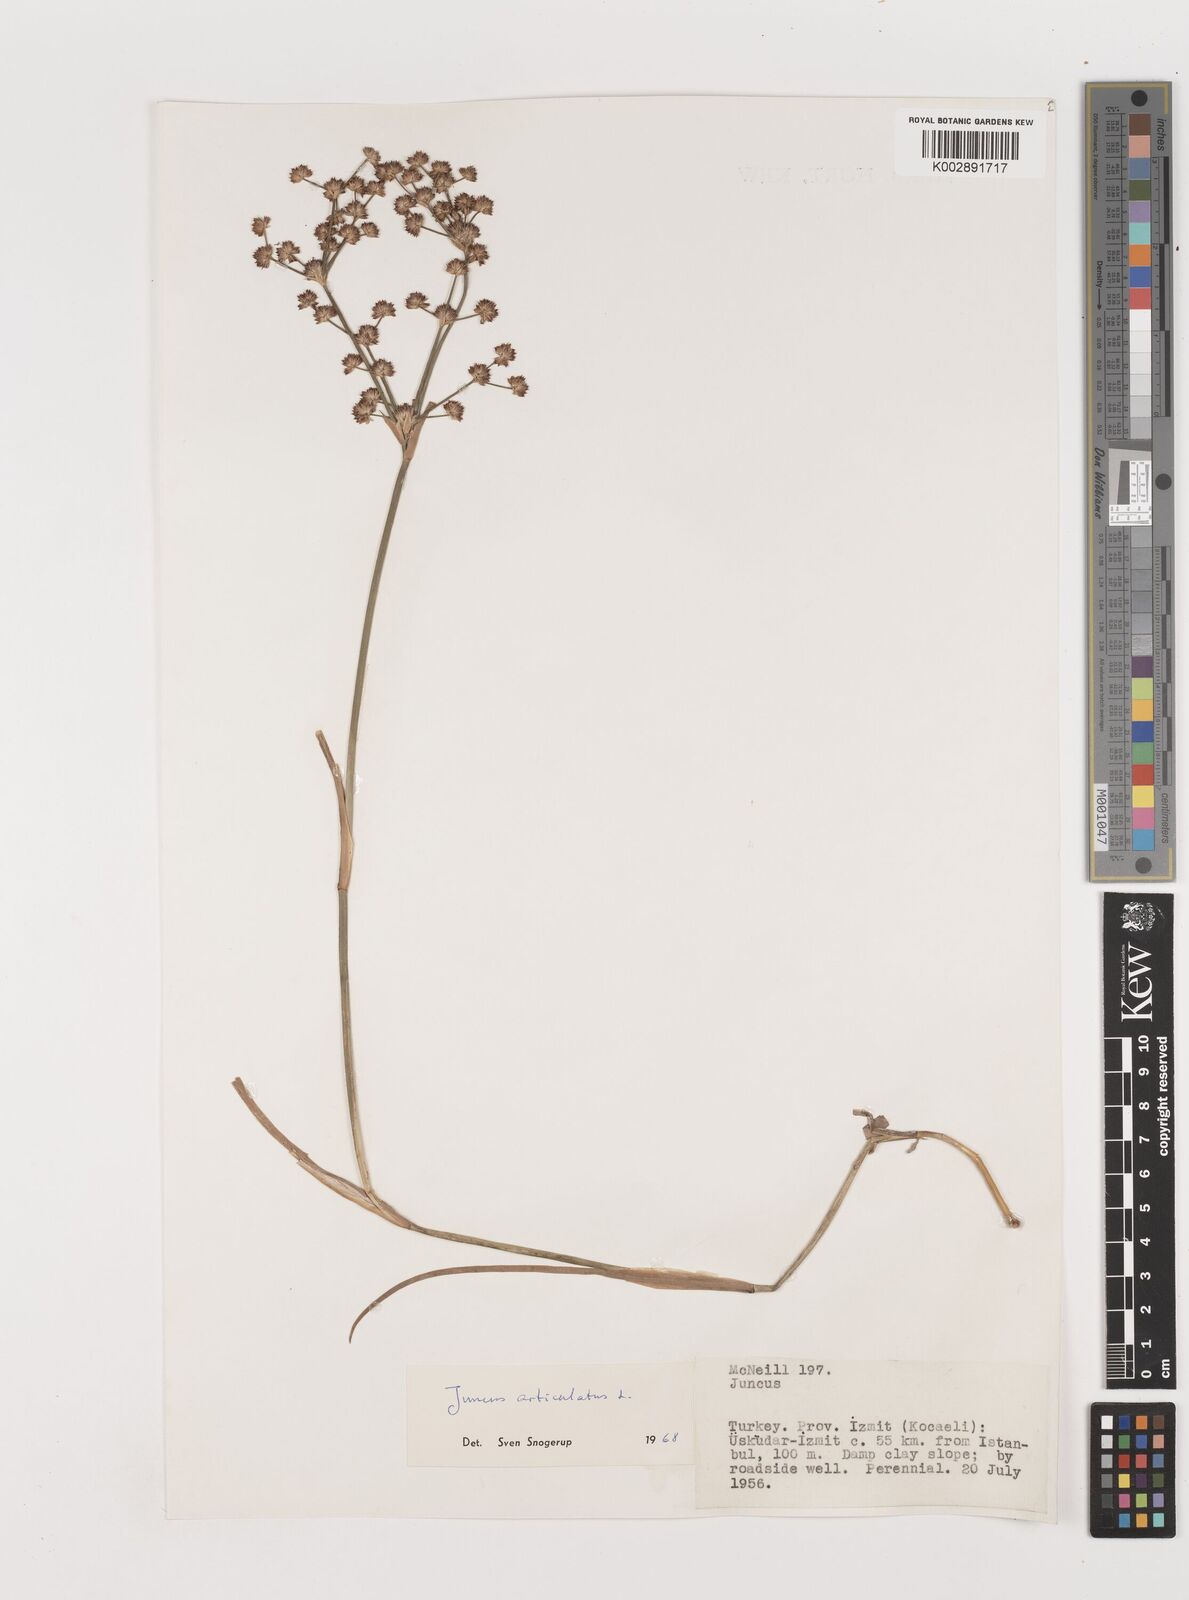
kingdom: Plantae
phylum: Tracheophyta
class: Liliopsida
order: Poales
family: Juncaceae
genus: Juncus
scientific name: Juncus articulatus
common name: Jointed rush
